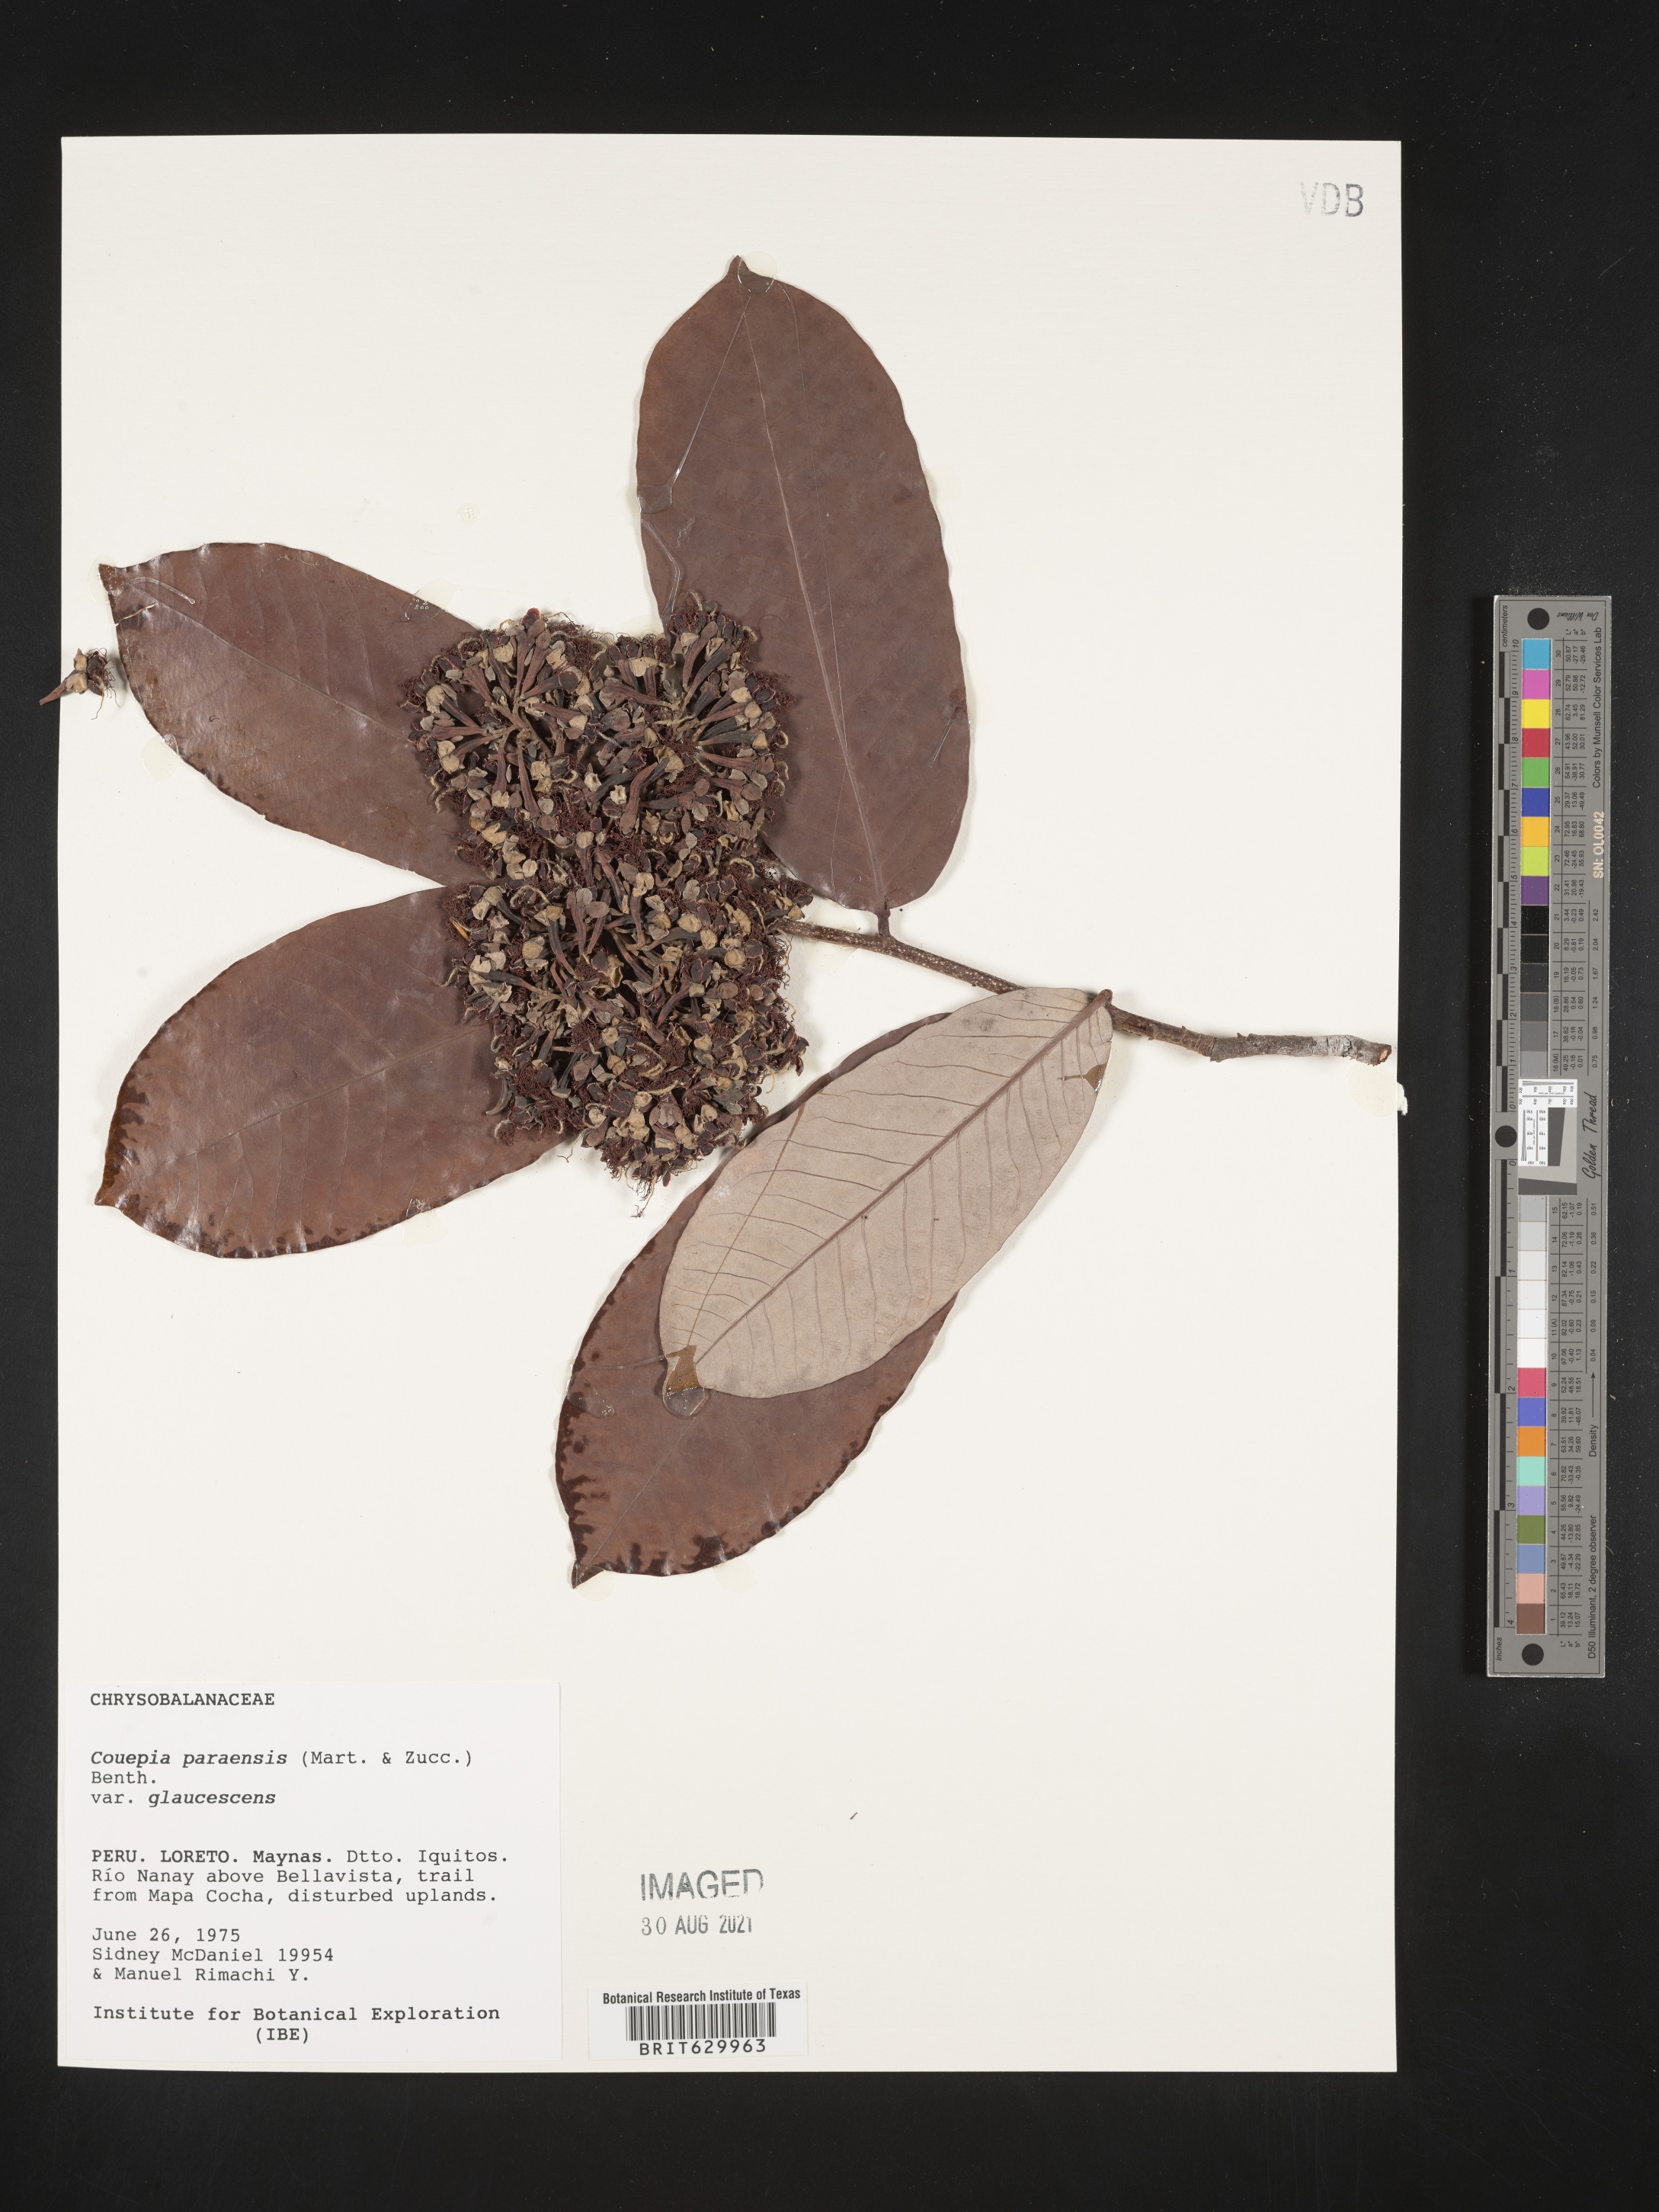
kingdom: Plantae
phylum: Tracheophyta
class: Magnoliopsida
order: Malpighiales
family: Chrysobalanaceae
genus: Couepia
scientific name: Couepia paraensis
